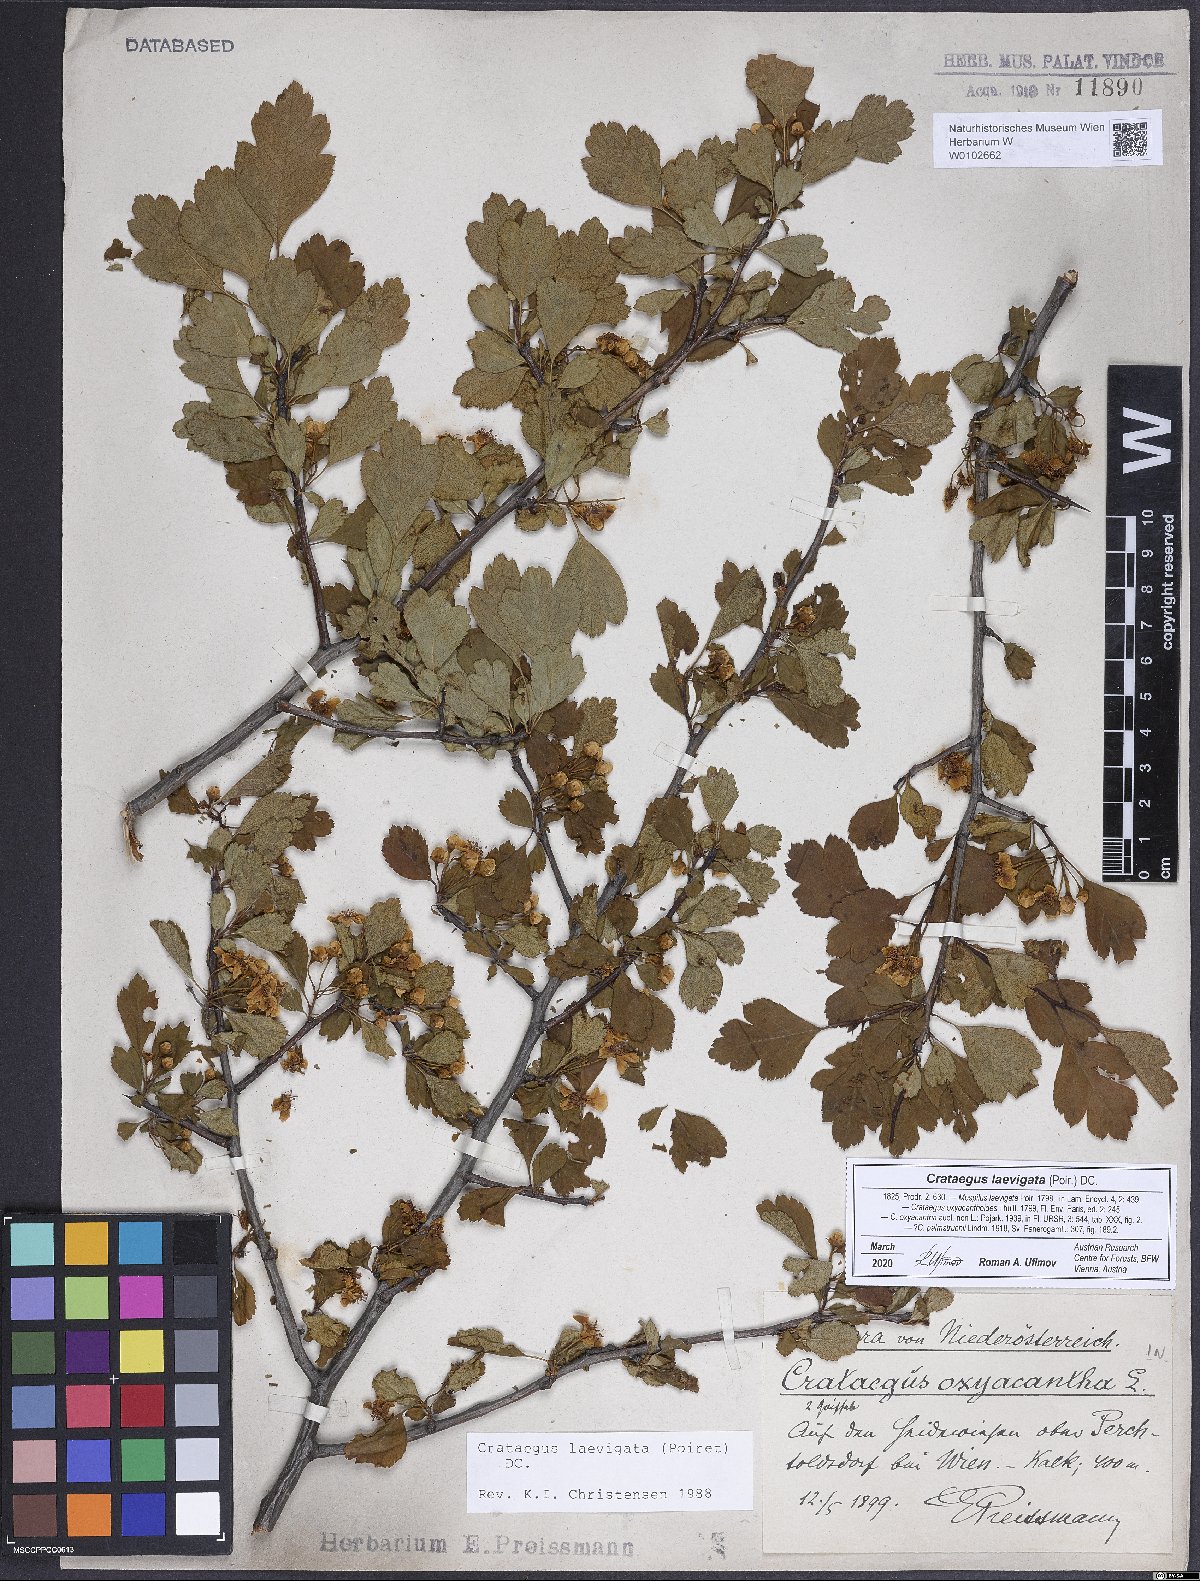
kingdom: Plantae
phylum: Tracheophyta
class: Magnoliopsida
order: Rosales
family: Rosaceae
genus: Crataegus
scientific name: Crataegus laevigata
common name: Midland hawthorn
